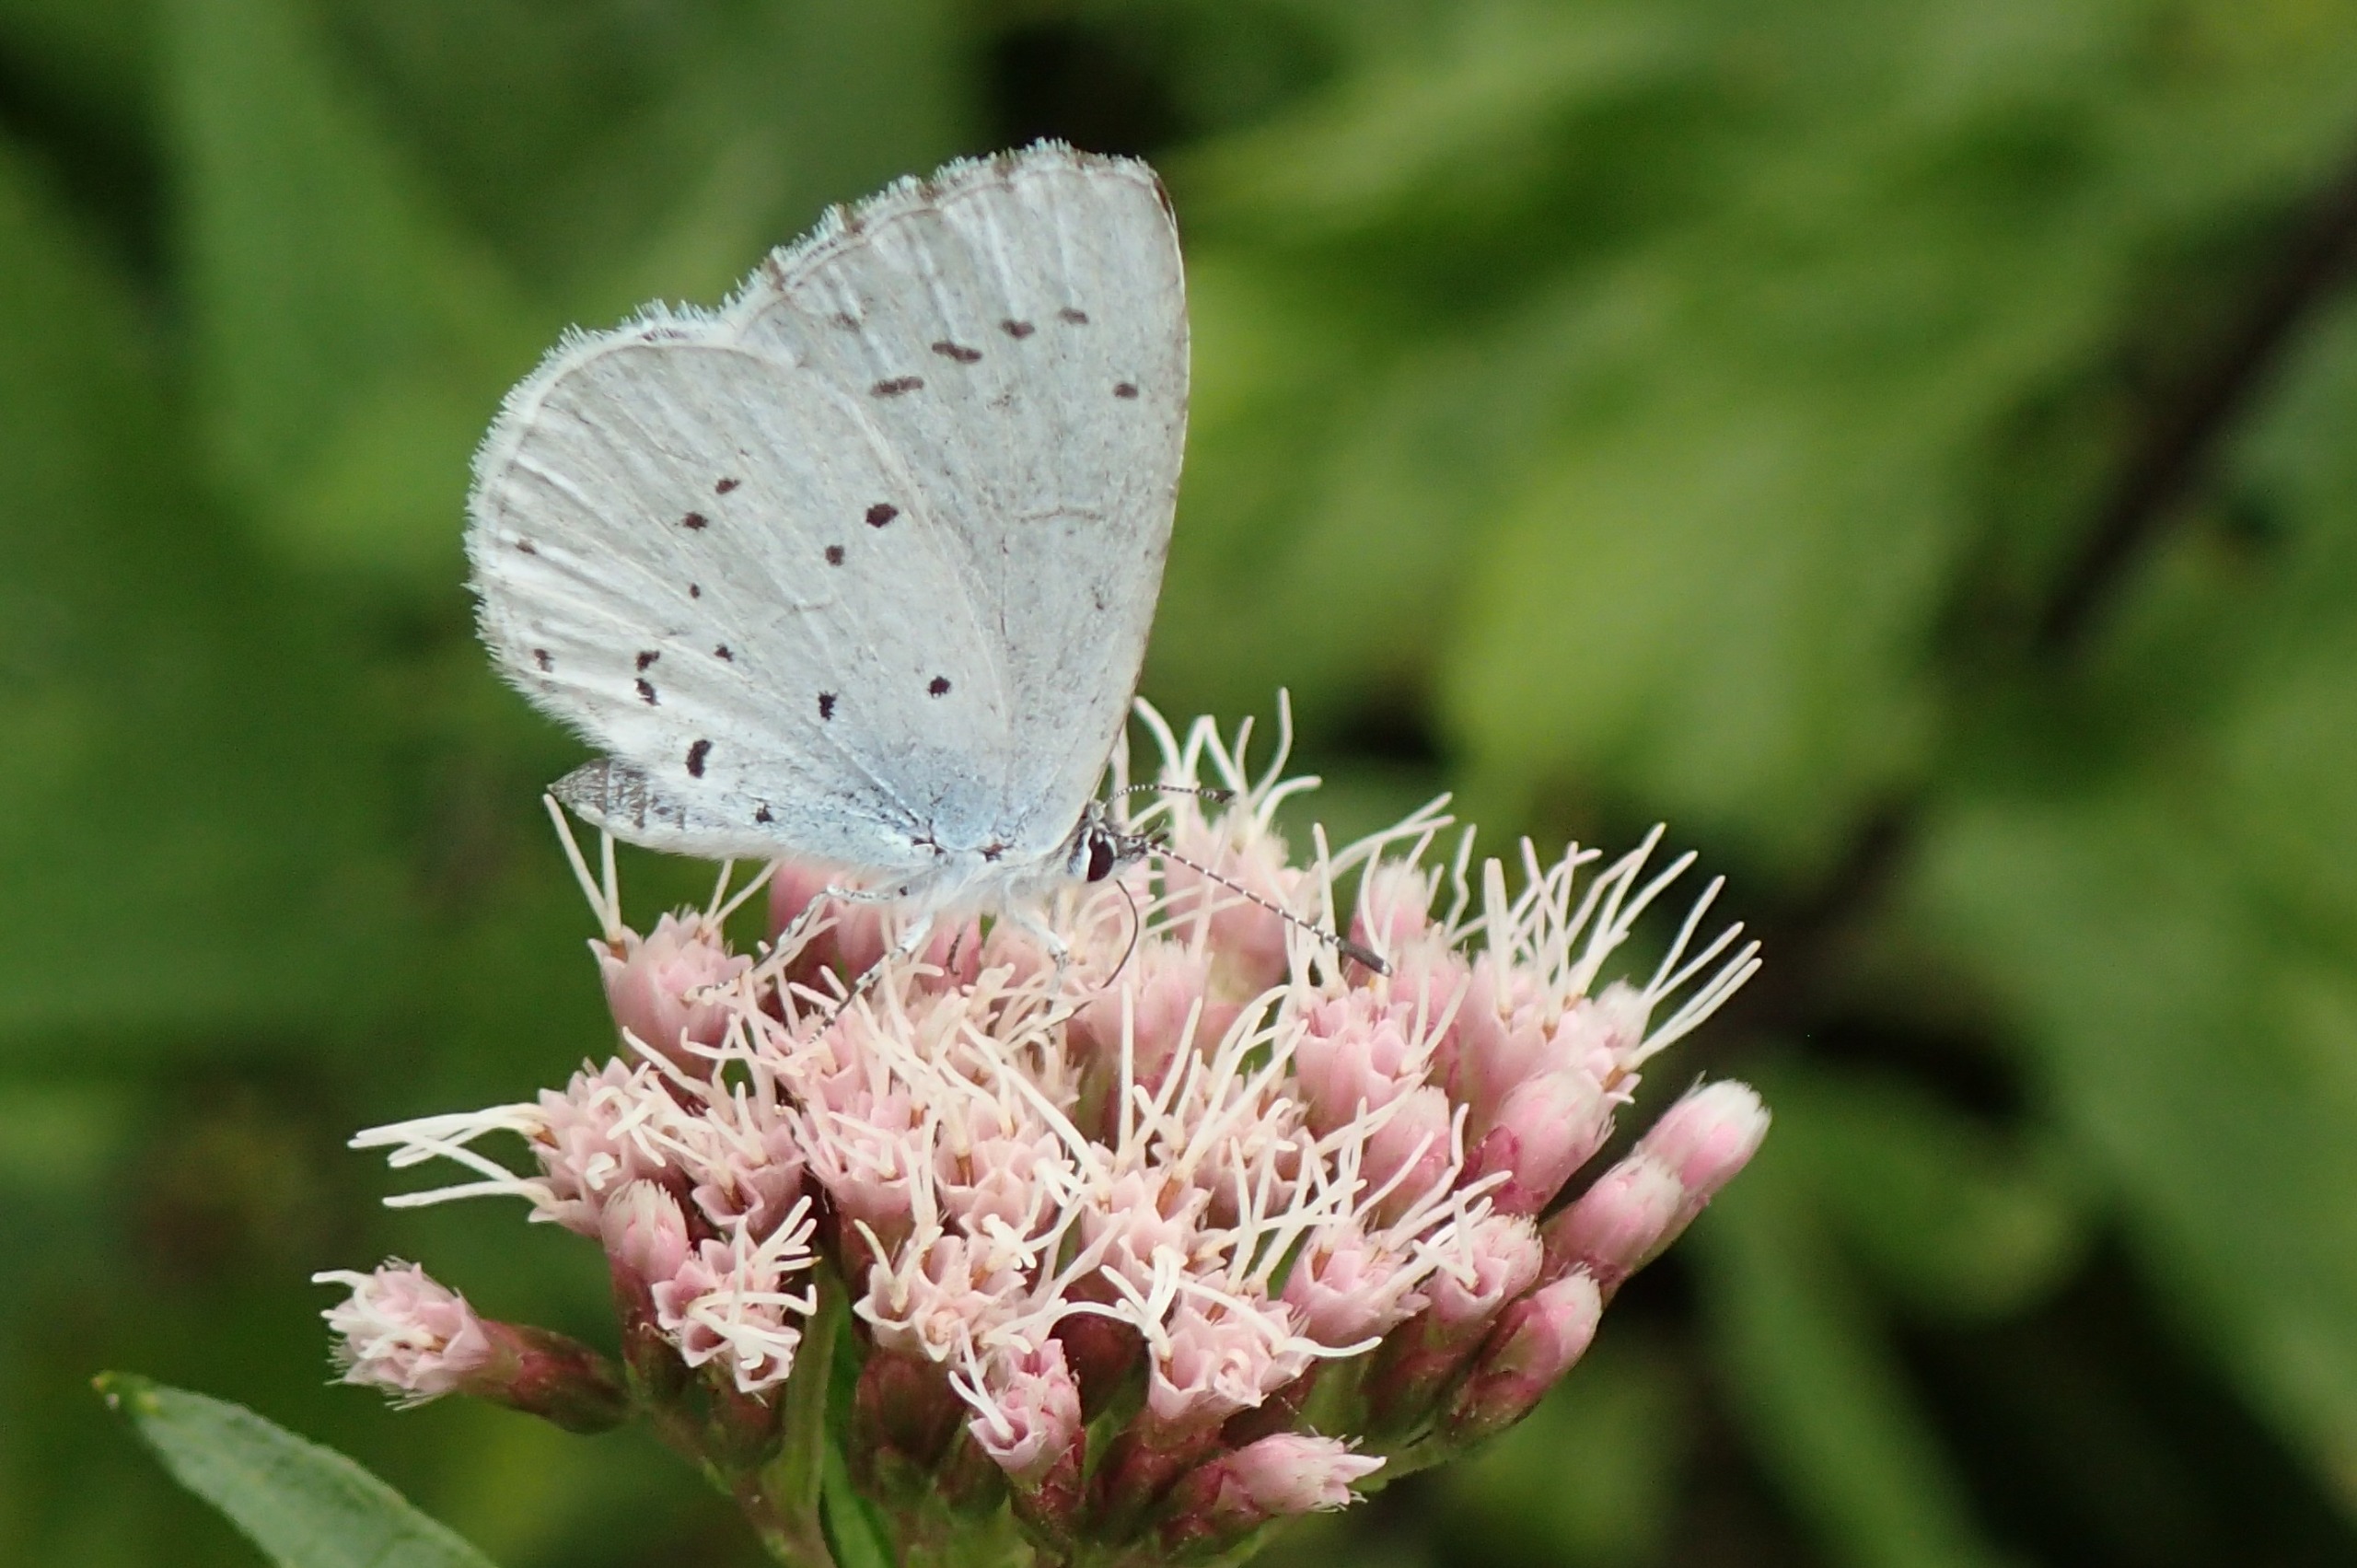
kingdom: Animalia
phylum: Arthropoda
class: Insecta
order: Lepidoptera
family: Lycaenidae
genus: Celastrina
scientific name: Celastrina argiolus
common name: Skovblåfugl
